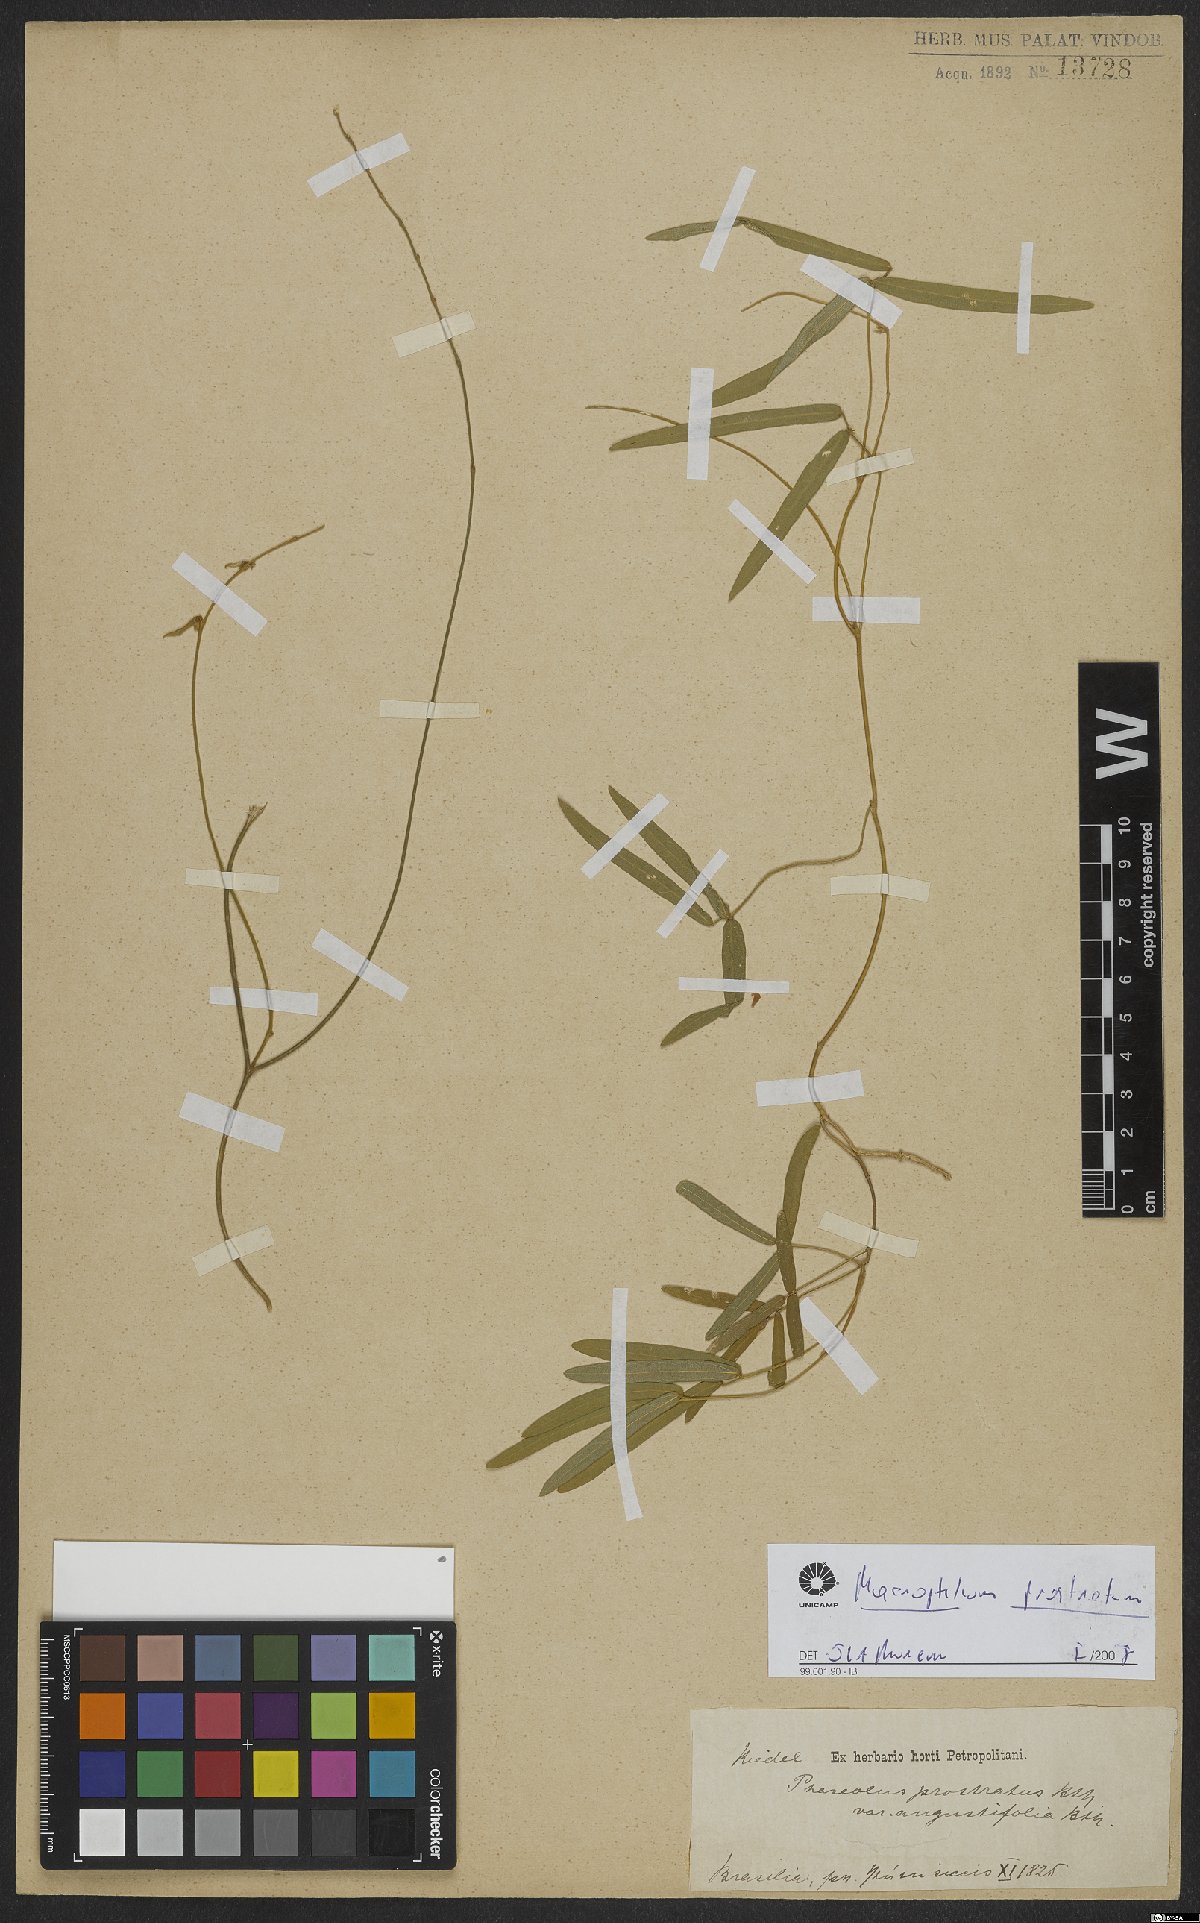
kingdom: Plantae
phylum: Tracheophyta
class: Magnoliopsida
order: Fabales
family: Fabaceae
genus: Macroptilium
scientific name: Macroptilium prostratum
